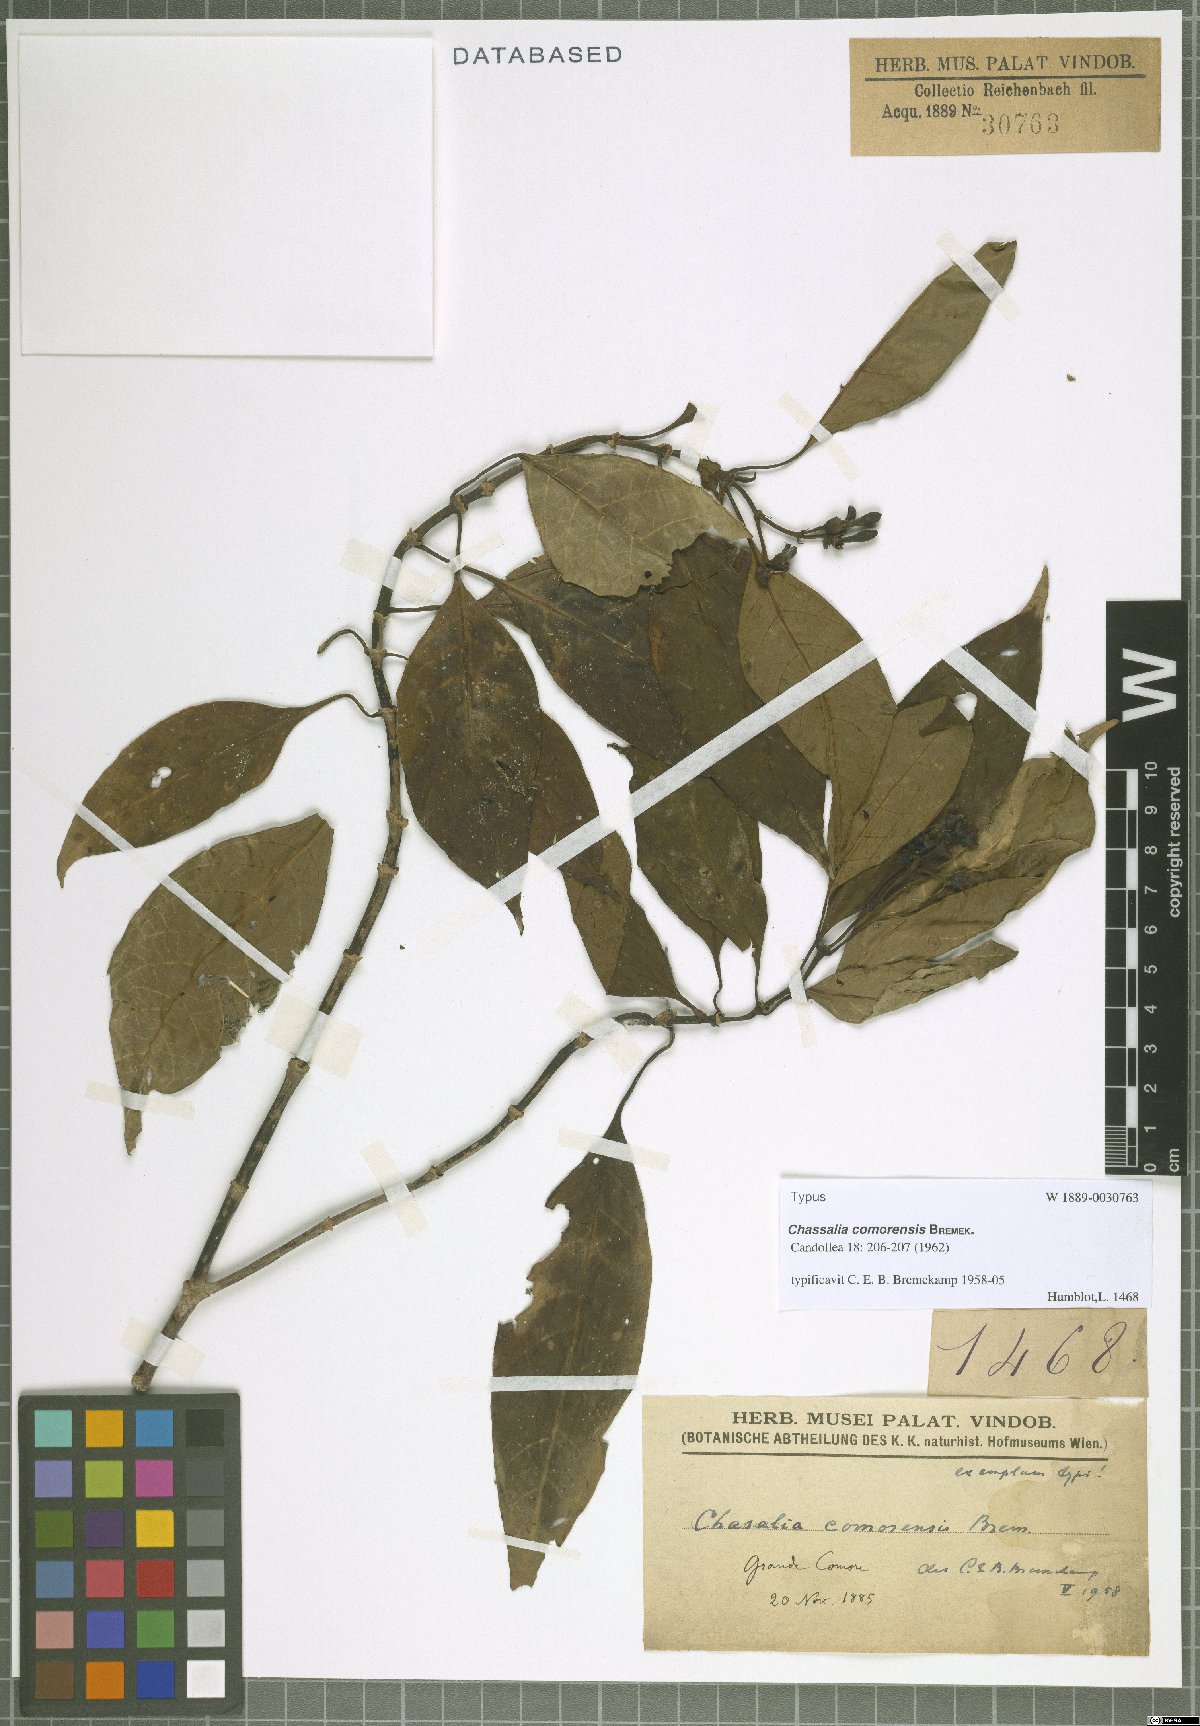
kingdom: Plantae
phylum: Tracheophyta
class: Magnoliopsida
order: Gentianales
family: Rubiaceae
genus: Chassalia
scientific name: Chassalia comorensis
